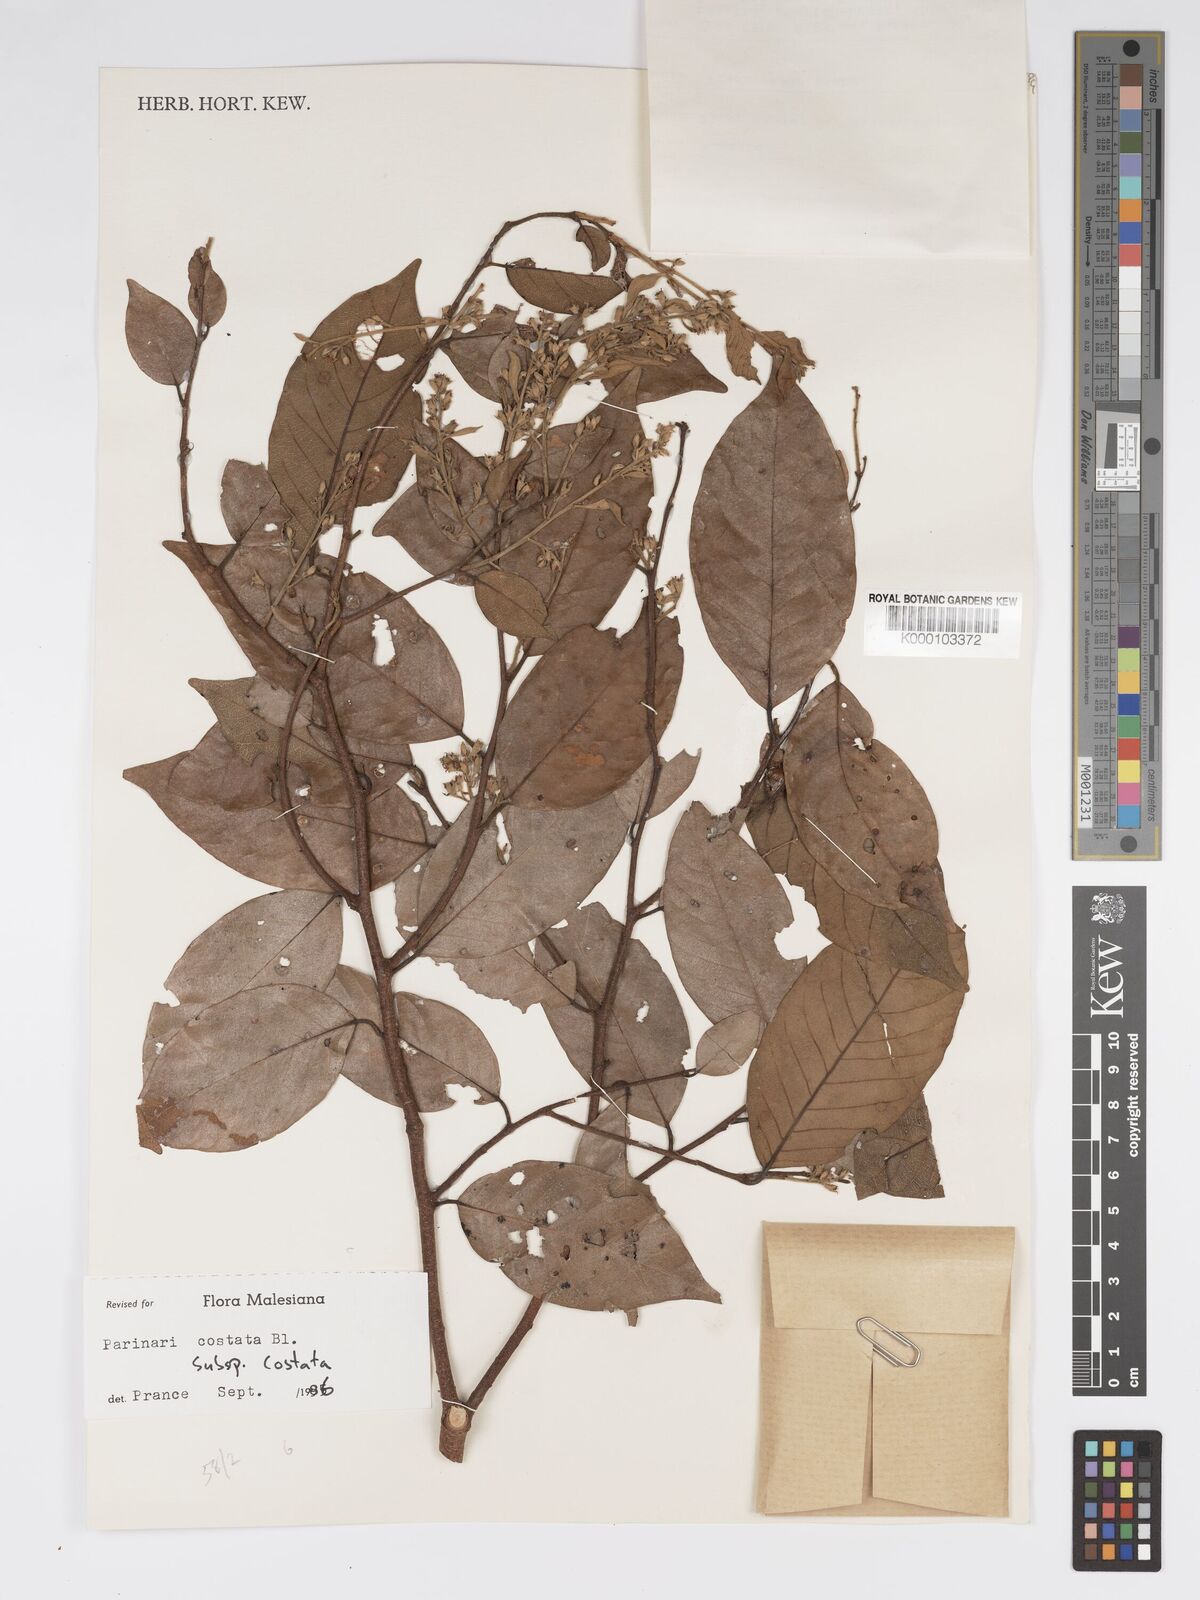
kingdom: Plantae
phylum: Tracheophyta
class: Magnoliopsida
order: Malpighiales
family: Chrysobalanaceae
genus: Parinari
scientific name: Parinari costata
